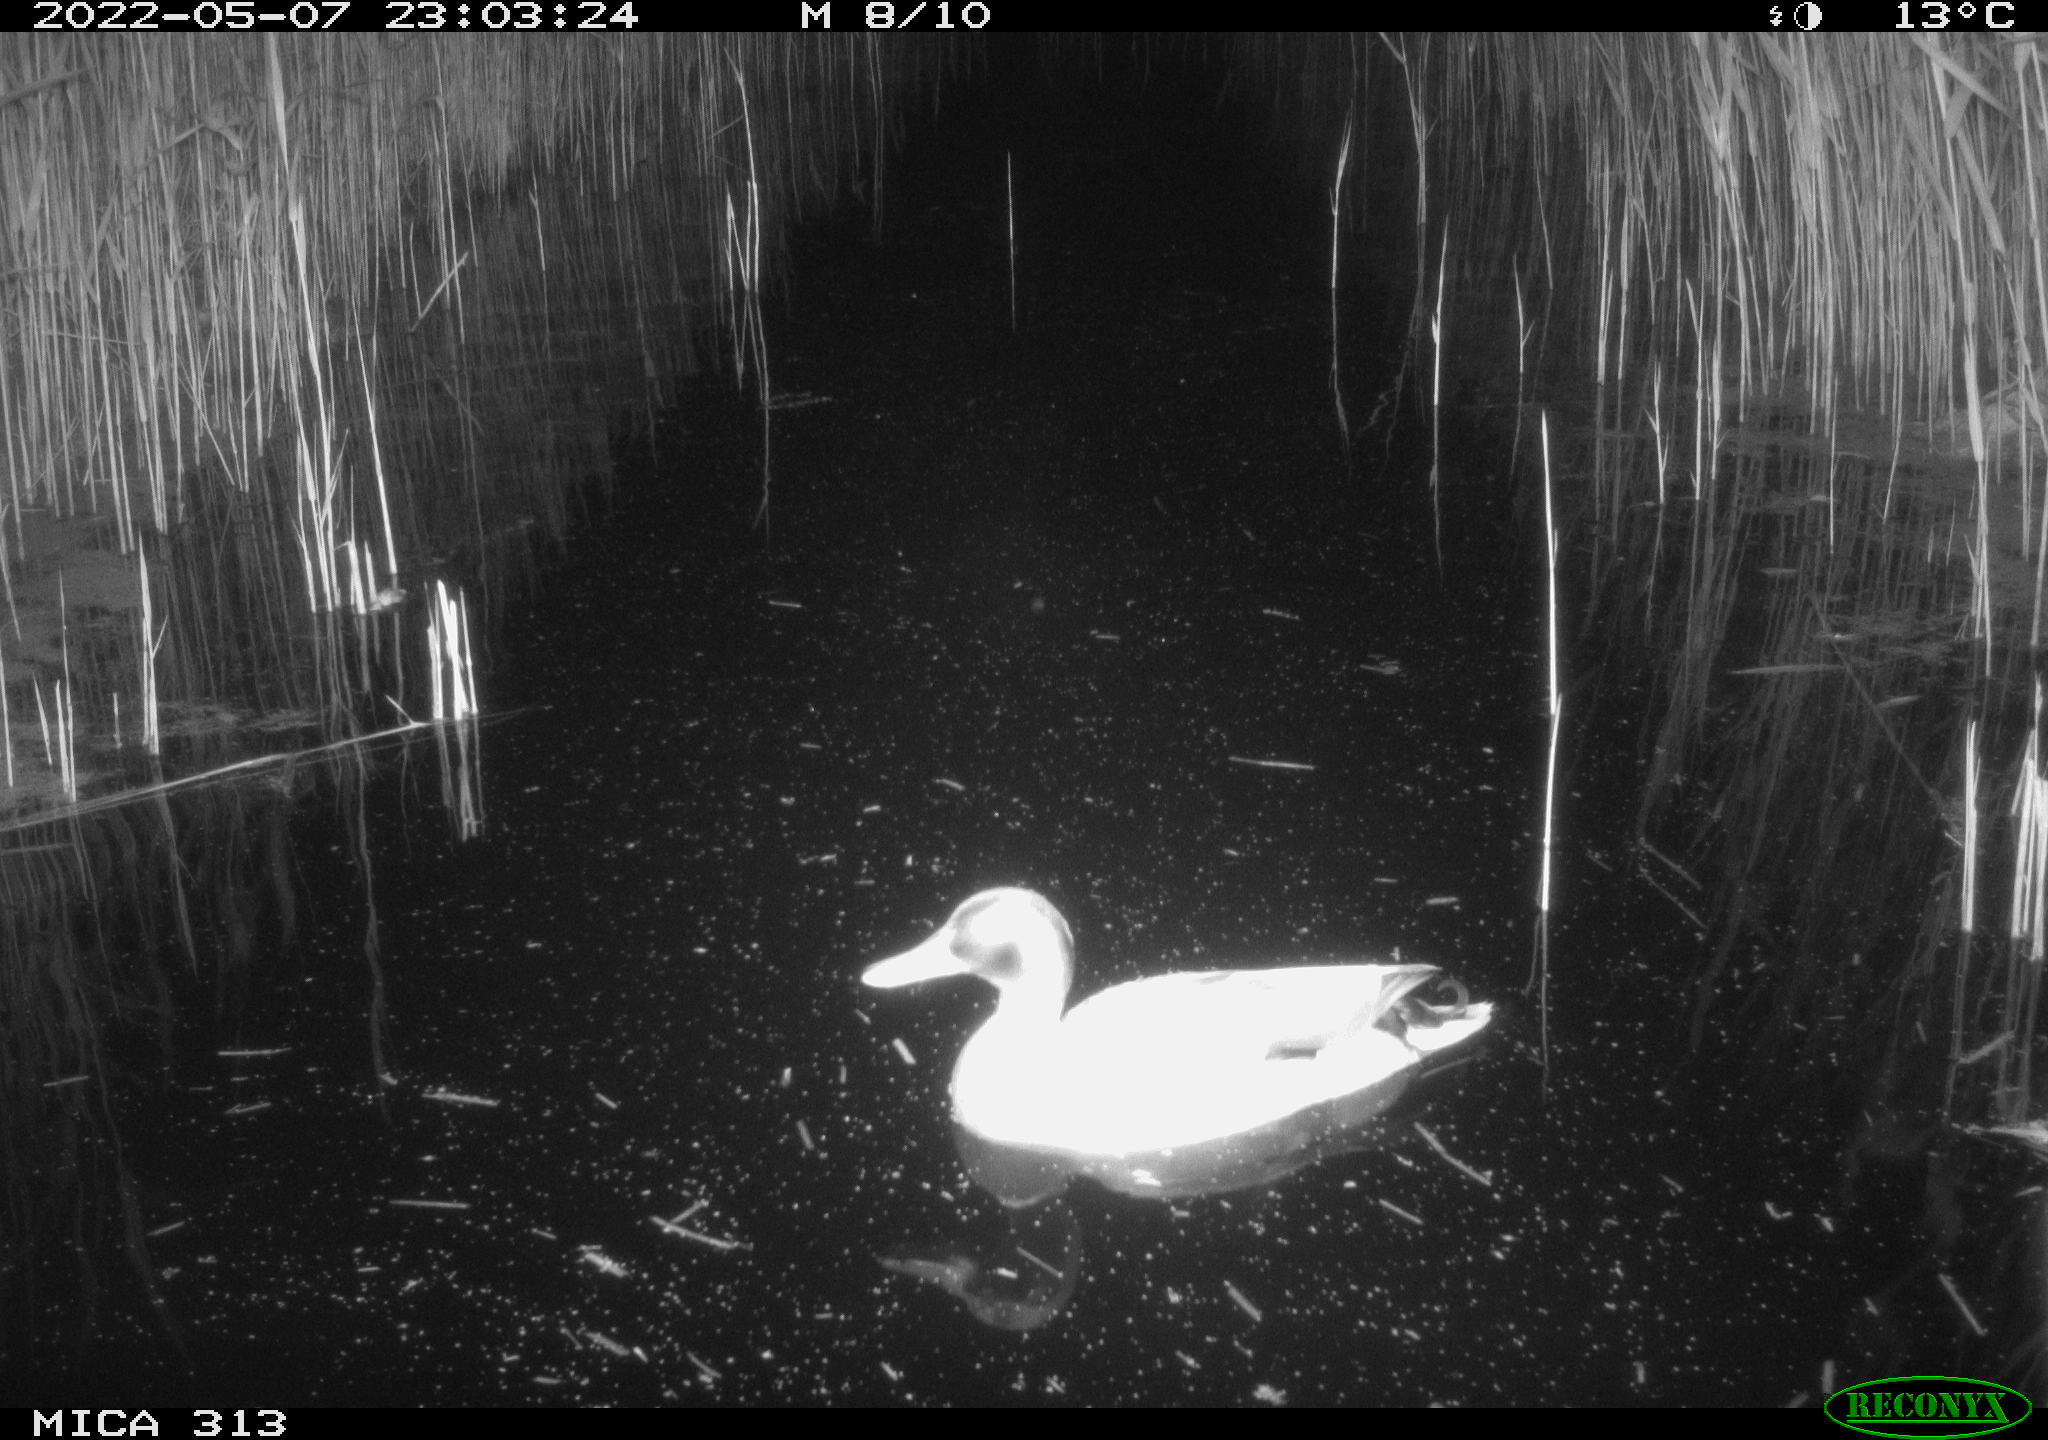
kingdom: Animalia
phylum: Chordata
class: Aves
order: Anseriformes
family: Anatidae
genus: Mareca
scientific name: Mareca strepera
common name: Gadwall
